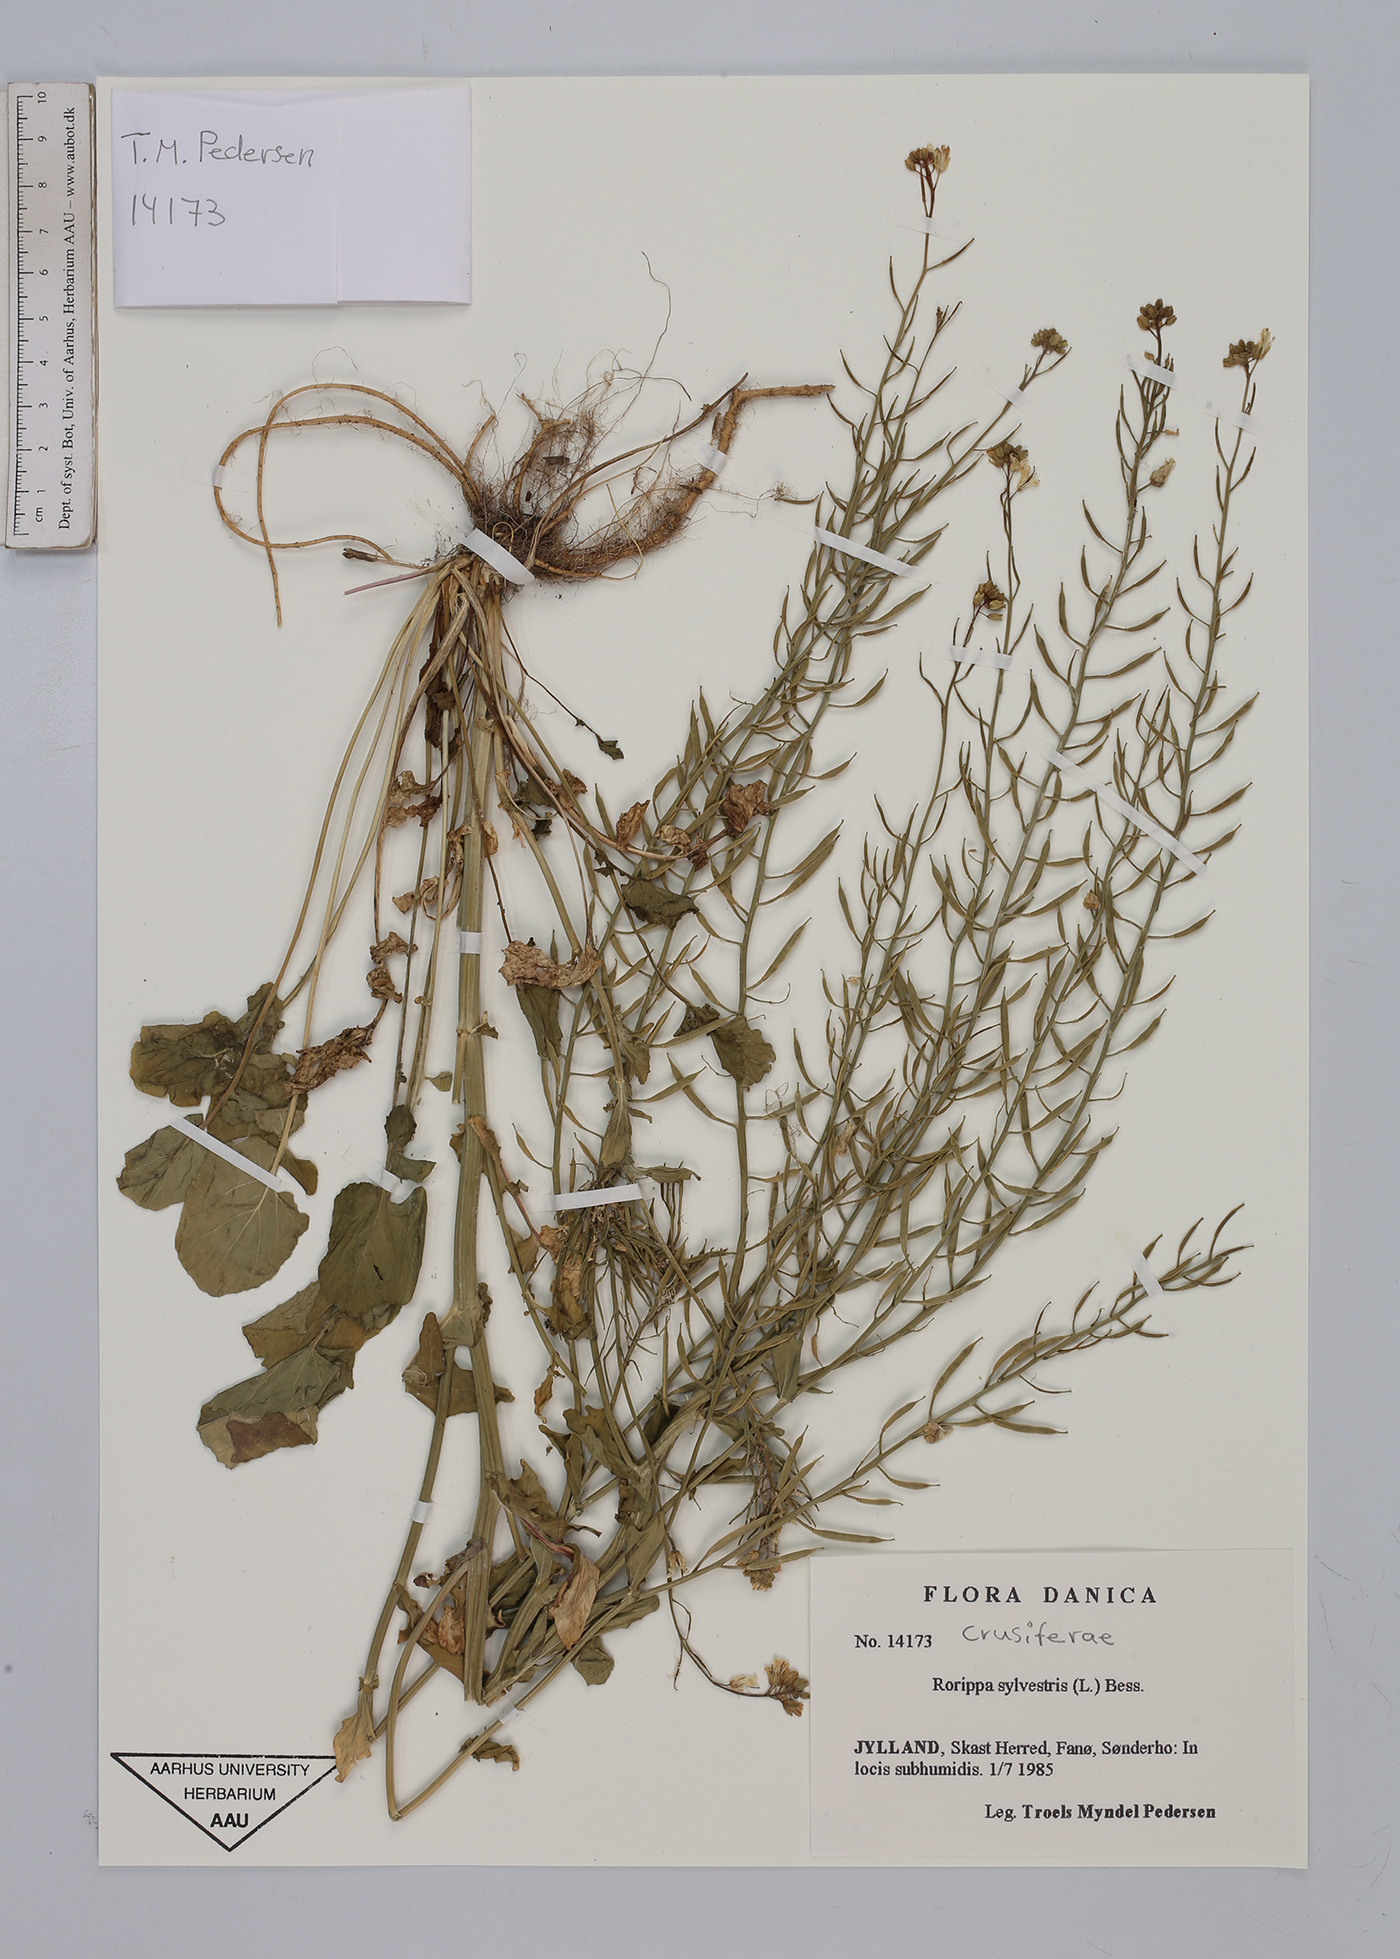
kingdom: Plantae
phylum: Tracheophyta
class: Magnoliopsida
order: Brassicales
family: Brassicaceae
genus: Rorippa
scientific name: Rorippa sylvestris
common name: Creeping yellowcress
